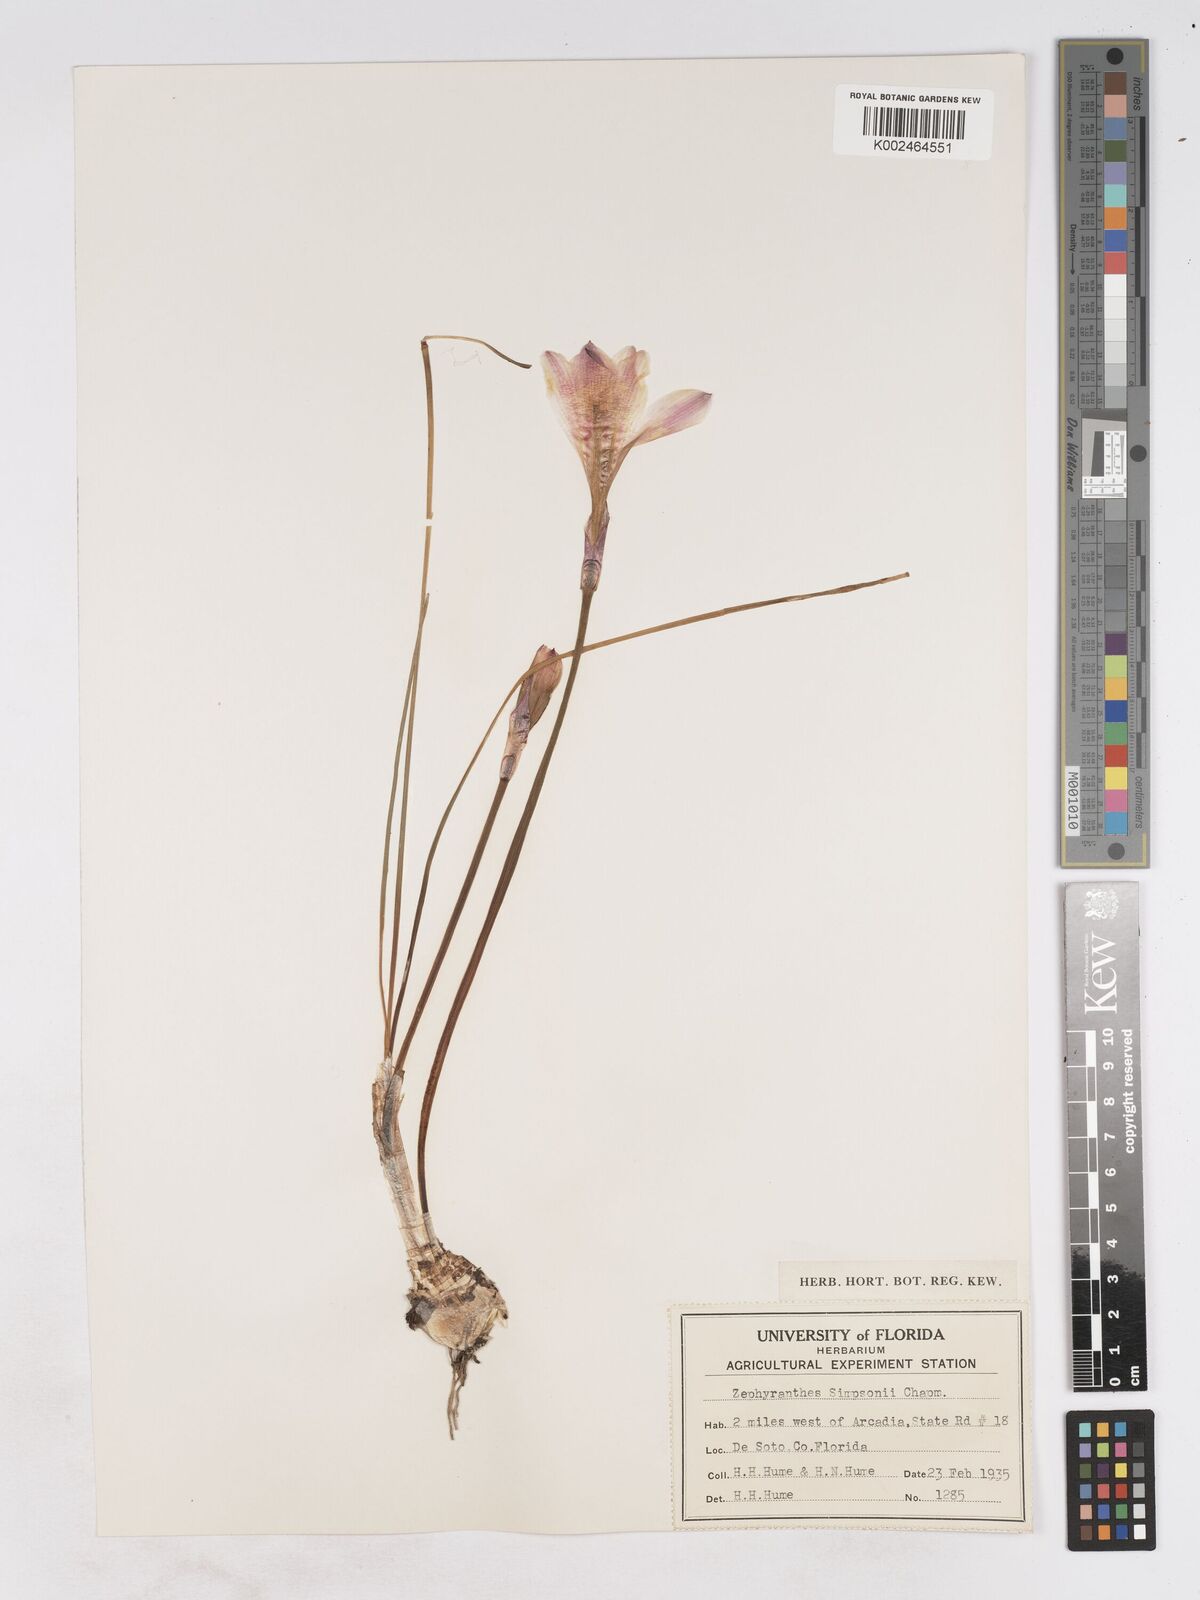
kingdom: Plantae
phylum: Tracheophyta
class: Liliopsida
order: Asparagales
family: Amaryllidaceae
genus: Zephyranthes
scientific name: Zephyranthes simpsonii
